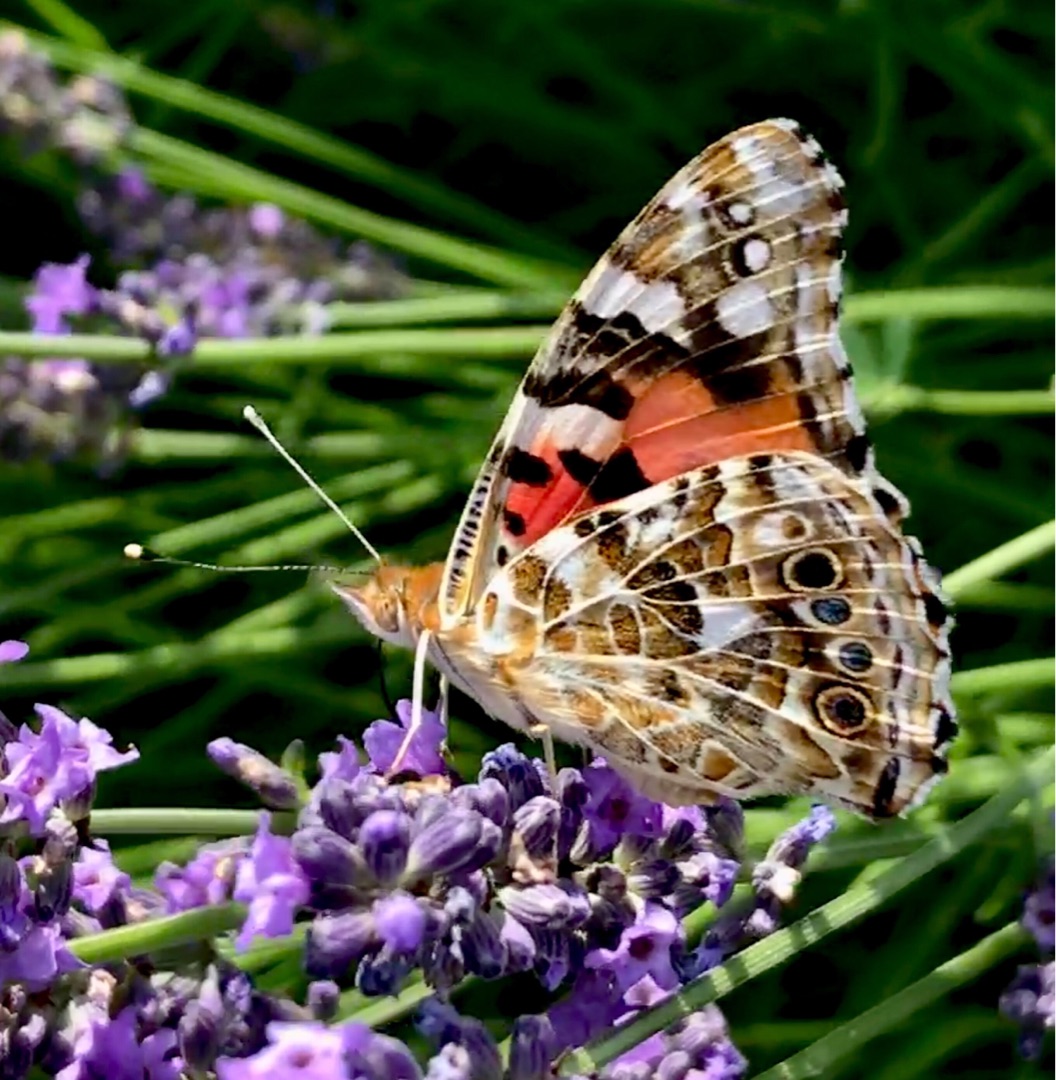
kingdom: Animalia
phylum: Arthropoda
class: Insecta
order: Lepidoptera
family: Nymphalidae
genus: Vanessa
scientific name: Vanessa cardui
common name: Tidselsommerfugl
